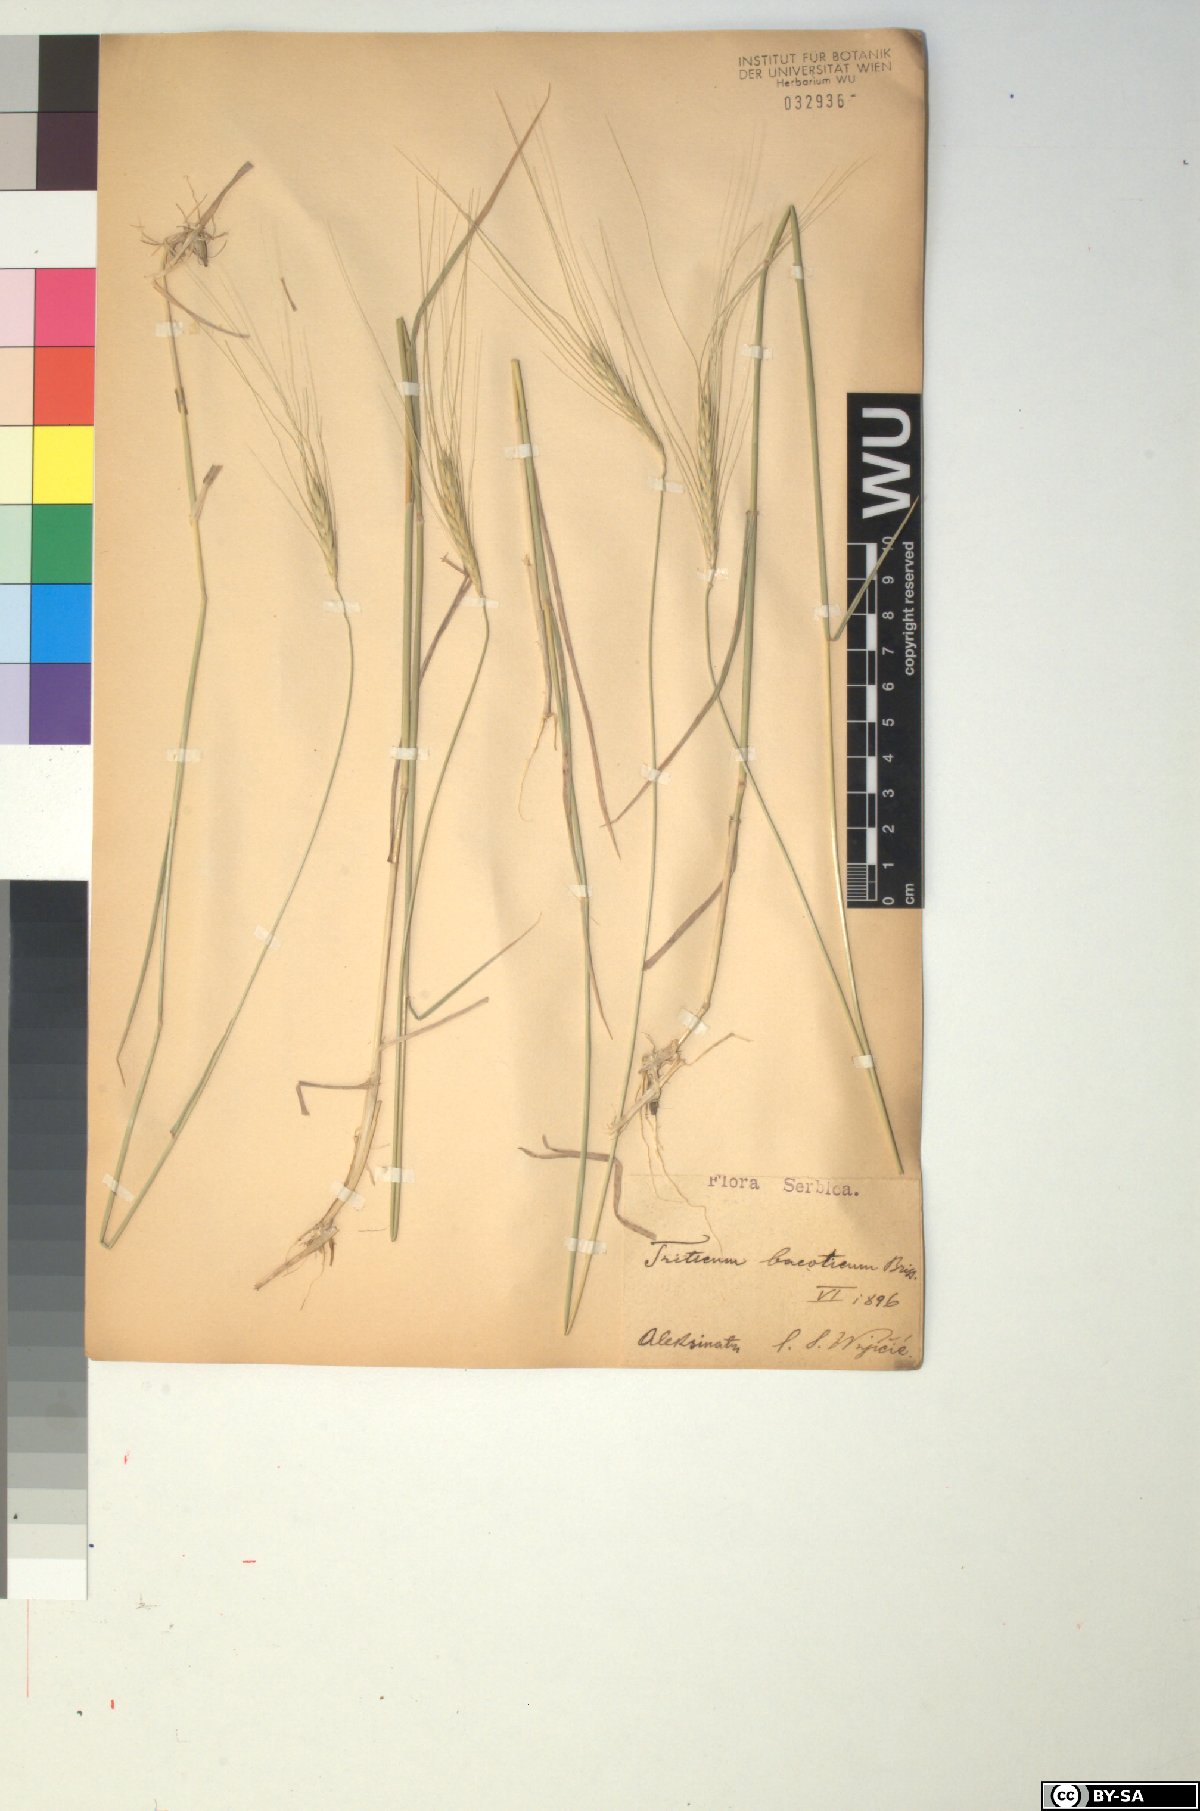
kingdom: Plantae
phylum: Tracheophyta
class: Liliopsida
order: Poales
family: Poaceae
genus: Triticum
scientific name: Triticum monococcum
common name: Einkorn
